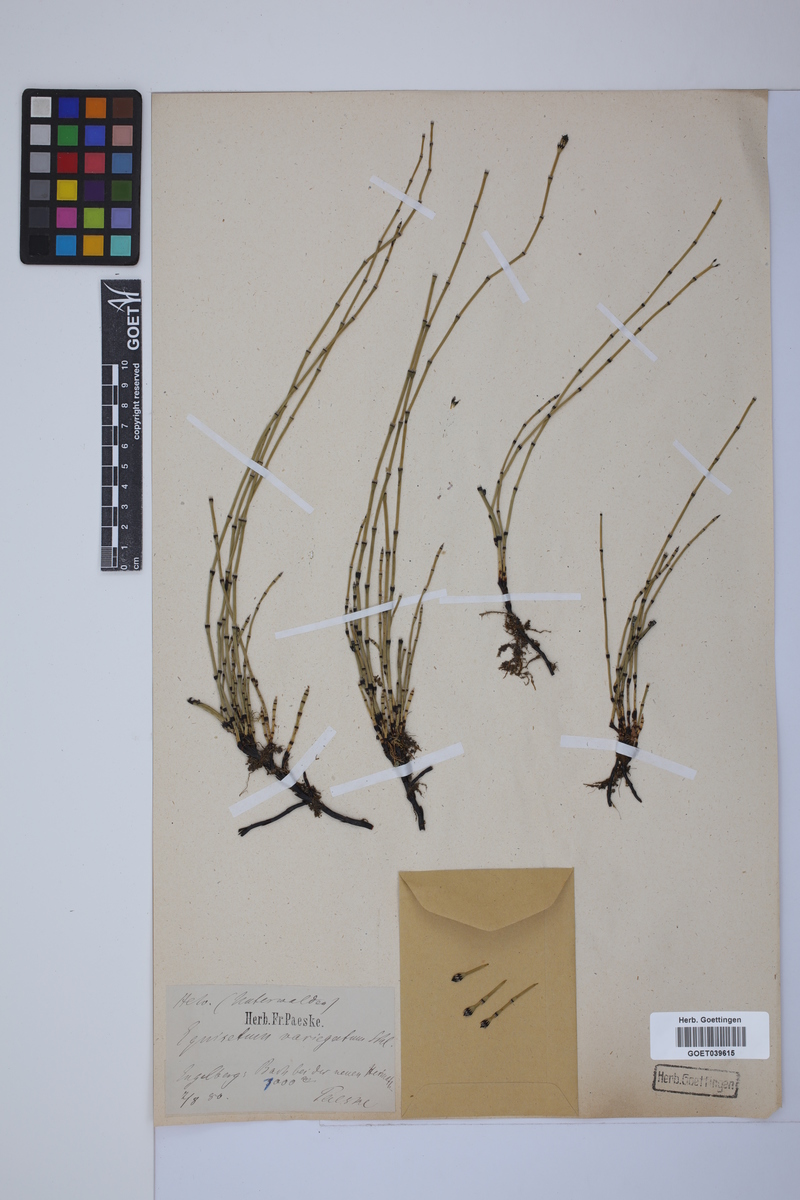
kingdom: Plantae
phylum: Tracheophyta
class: Polypodiopsida
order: Equisetales
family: Equisetaceae
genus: Equisetum
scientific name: Equisetum variegatum
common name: Variegated horsetail
